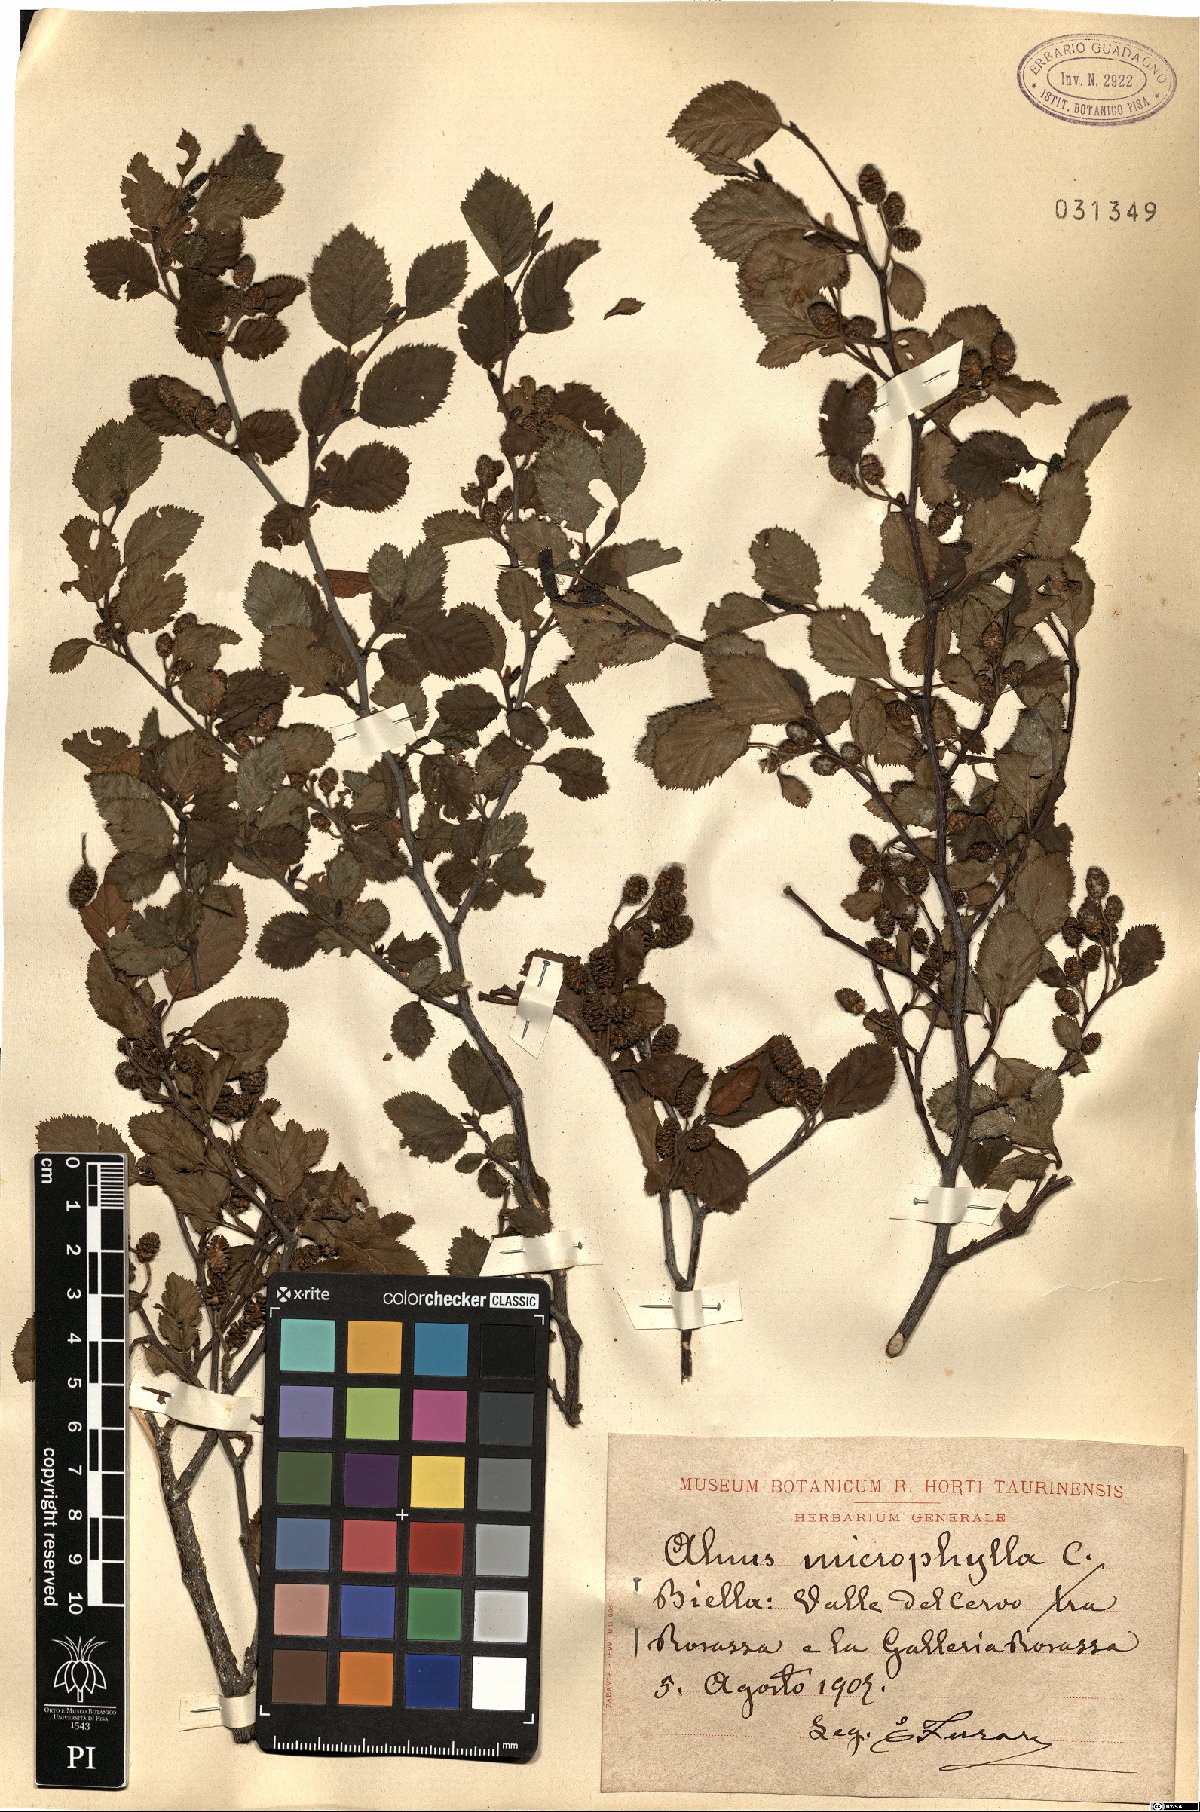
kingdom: Plantae
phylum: Tracheophyta
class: Magnoliopsida
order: Fagales
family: Betulaceae
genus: Alnus
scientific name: Alnus alnobetula
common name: Green alder
